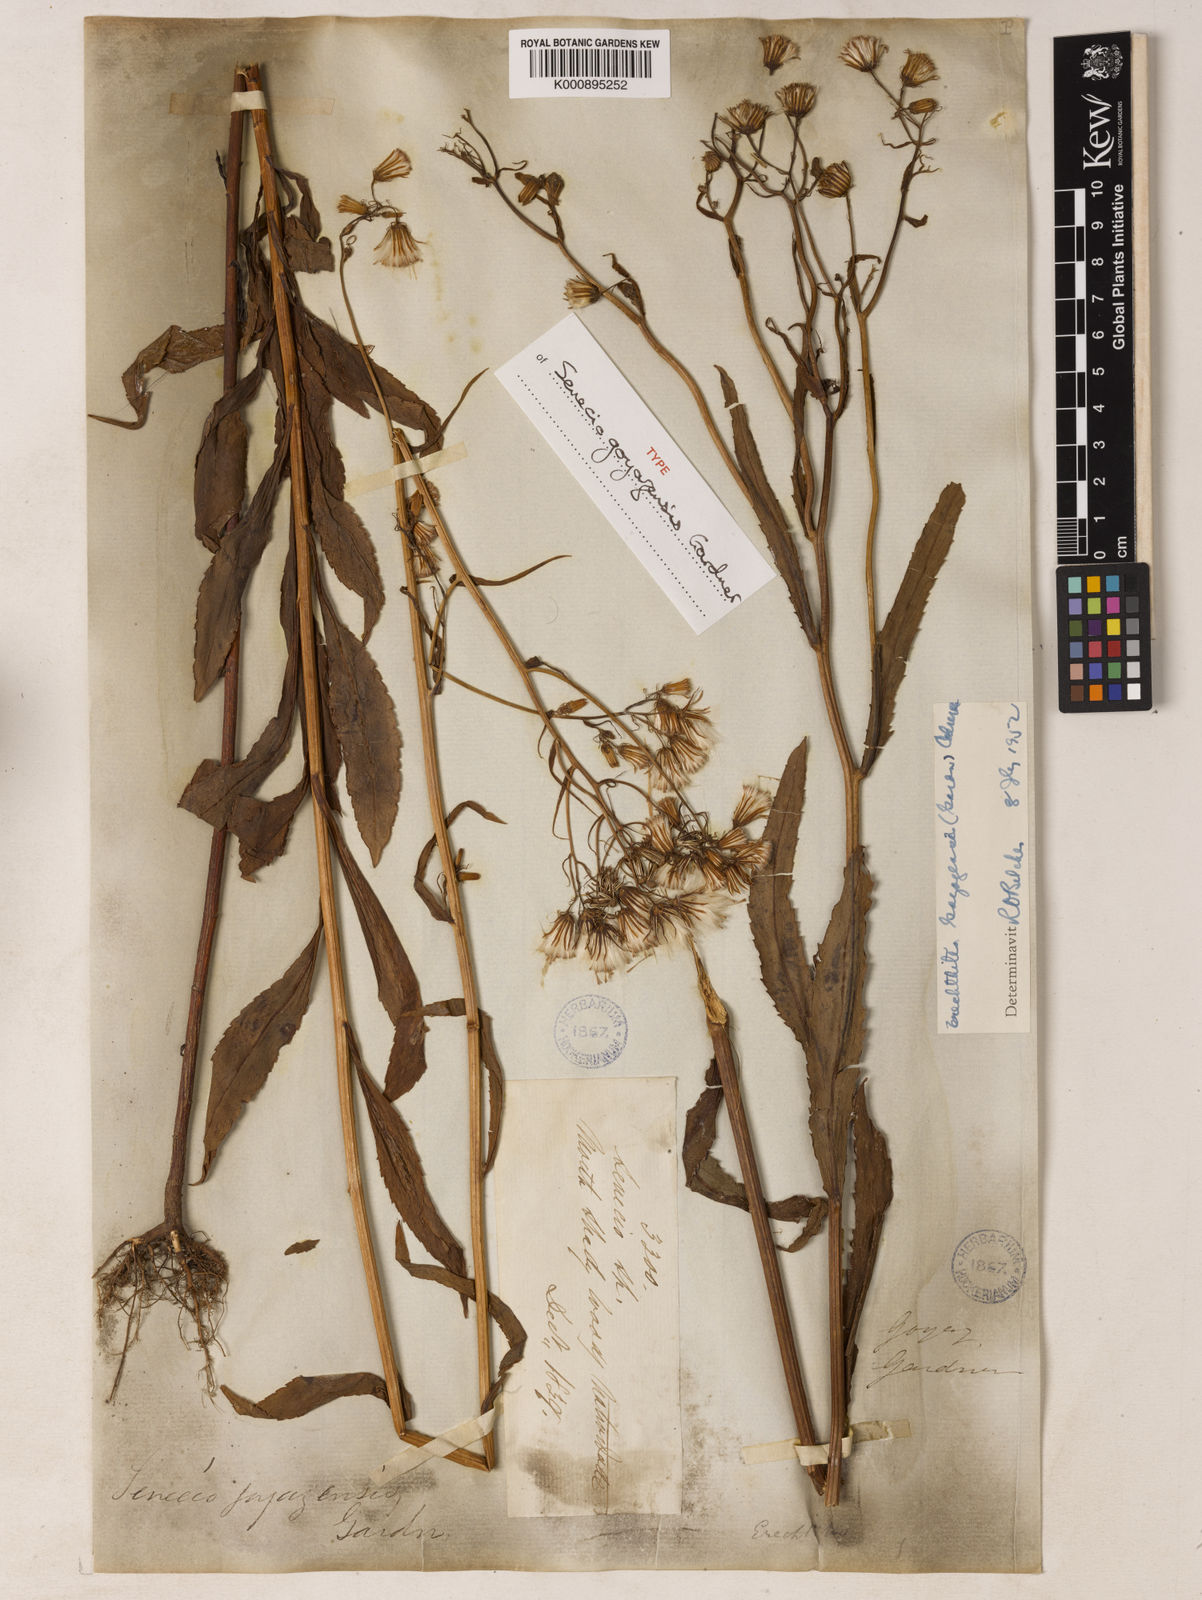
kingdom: Plantae
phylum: Tracheophyta
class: Magnoliopsida
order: Asterales
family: Asteraceae
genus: Erechtites
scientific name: Erechtites goyazensis
